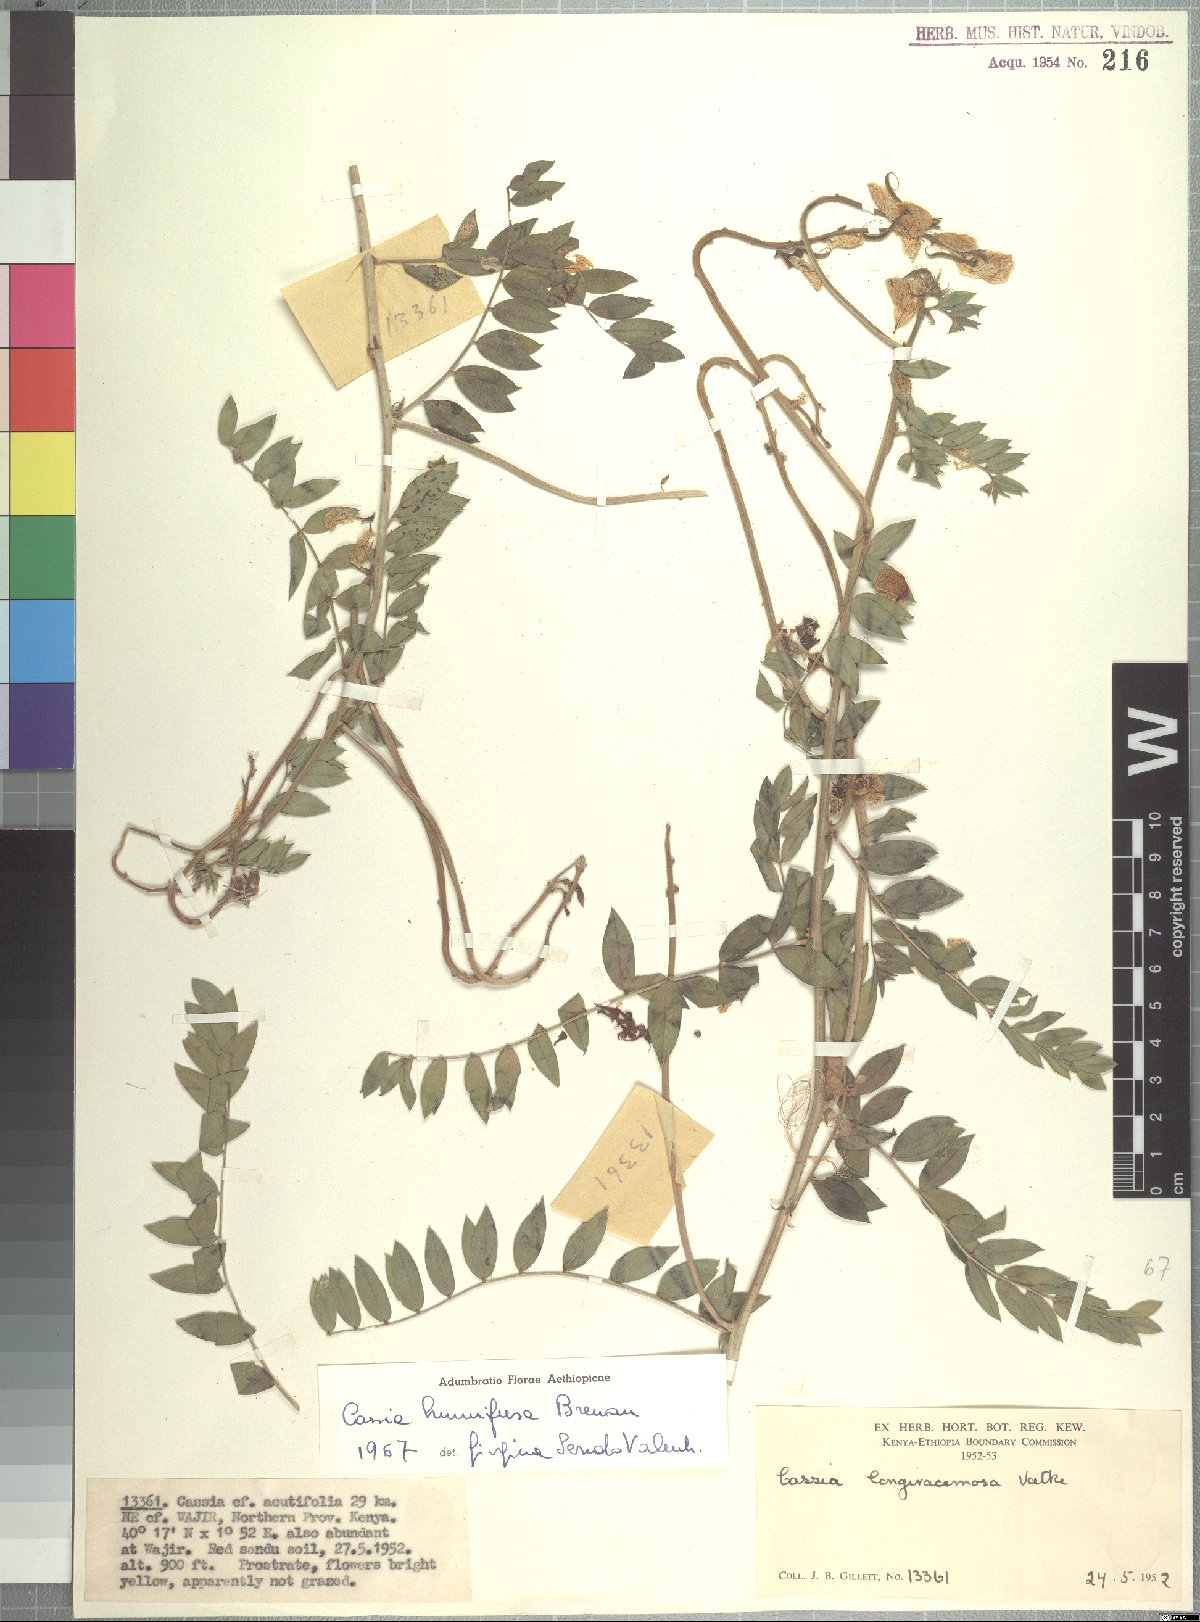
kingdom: Plantae
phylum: Tracheophyta
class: Magnoliopsida
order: Fabales
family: Fabaceae
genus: Senna
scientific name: Senna humifusa
